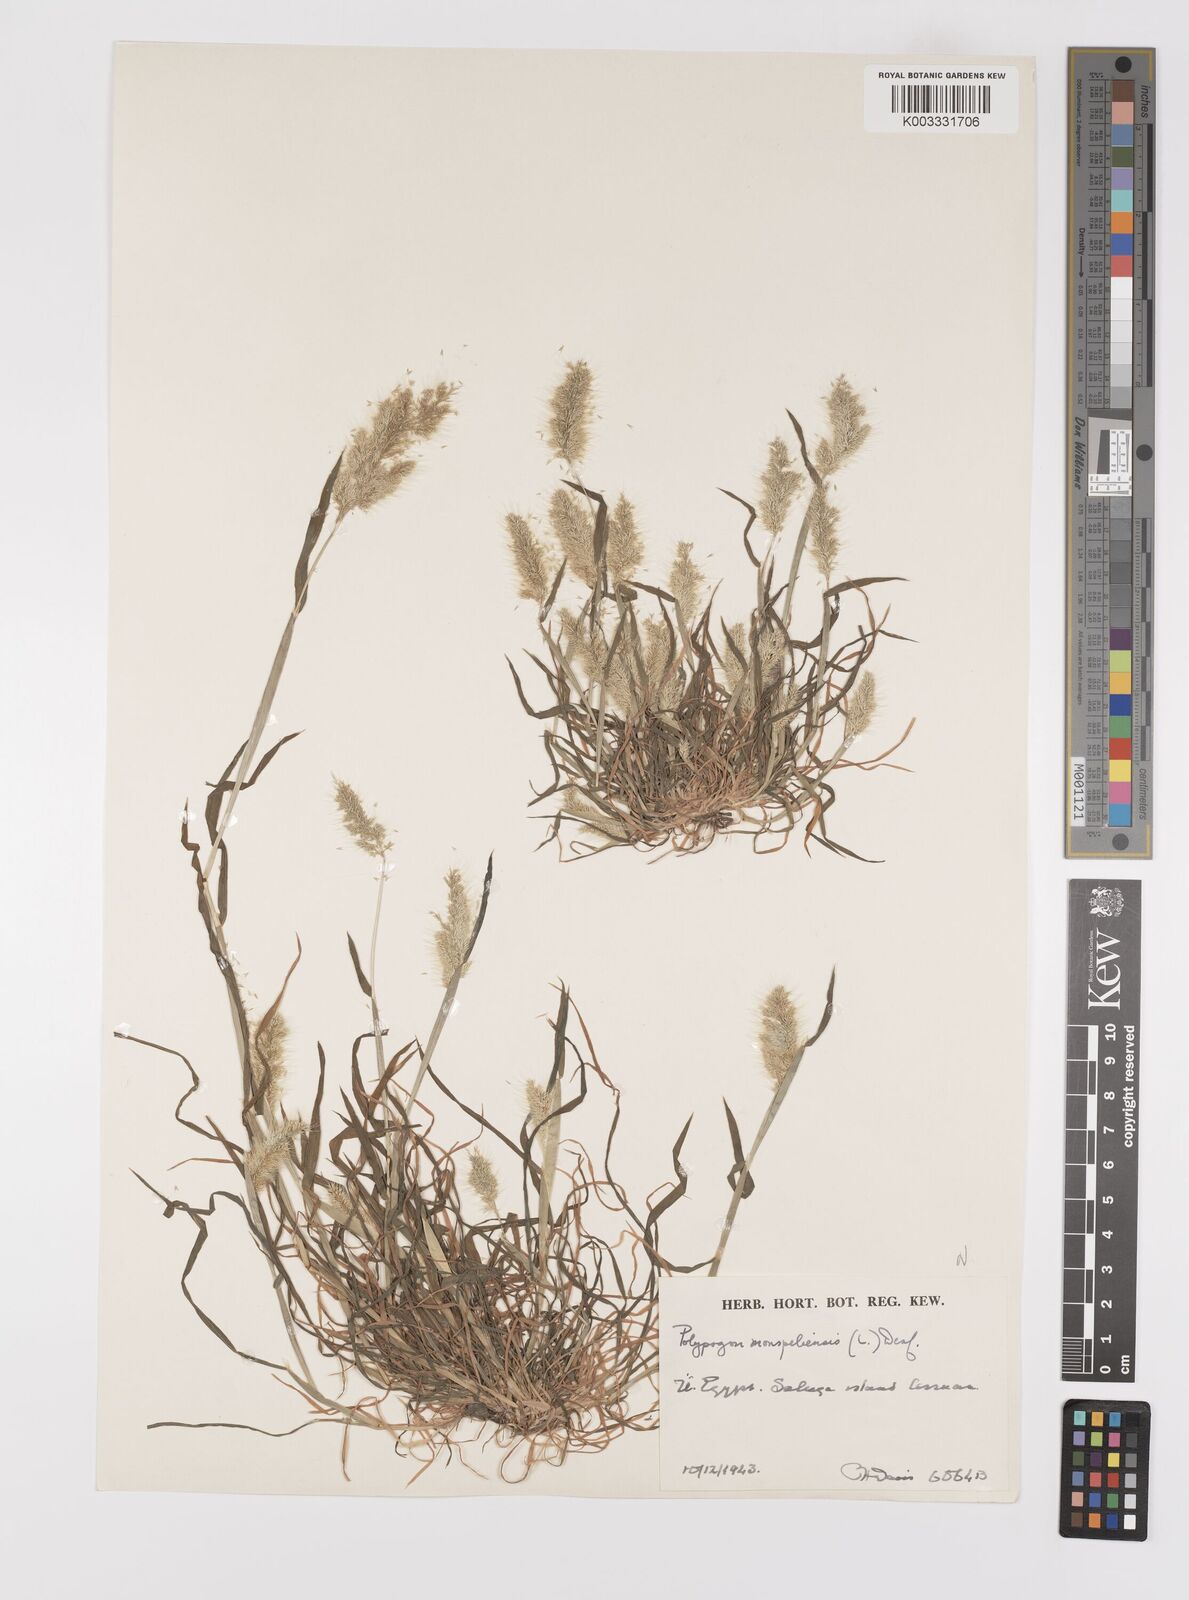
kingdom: Plantae
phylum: Tracheophyta
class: Liliopsida
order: Poales
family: Poaceae
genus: Polypogon
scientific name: Polypogon monspeliensis
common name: Annual rabbitsfoot grass
